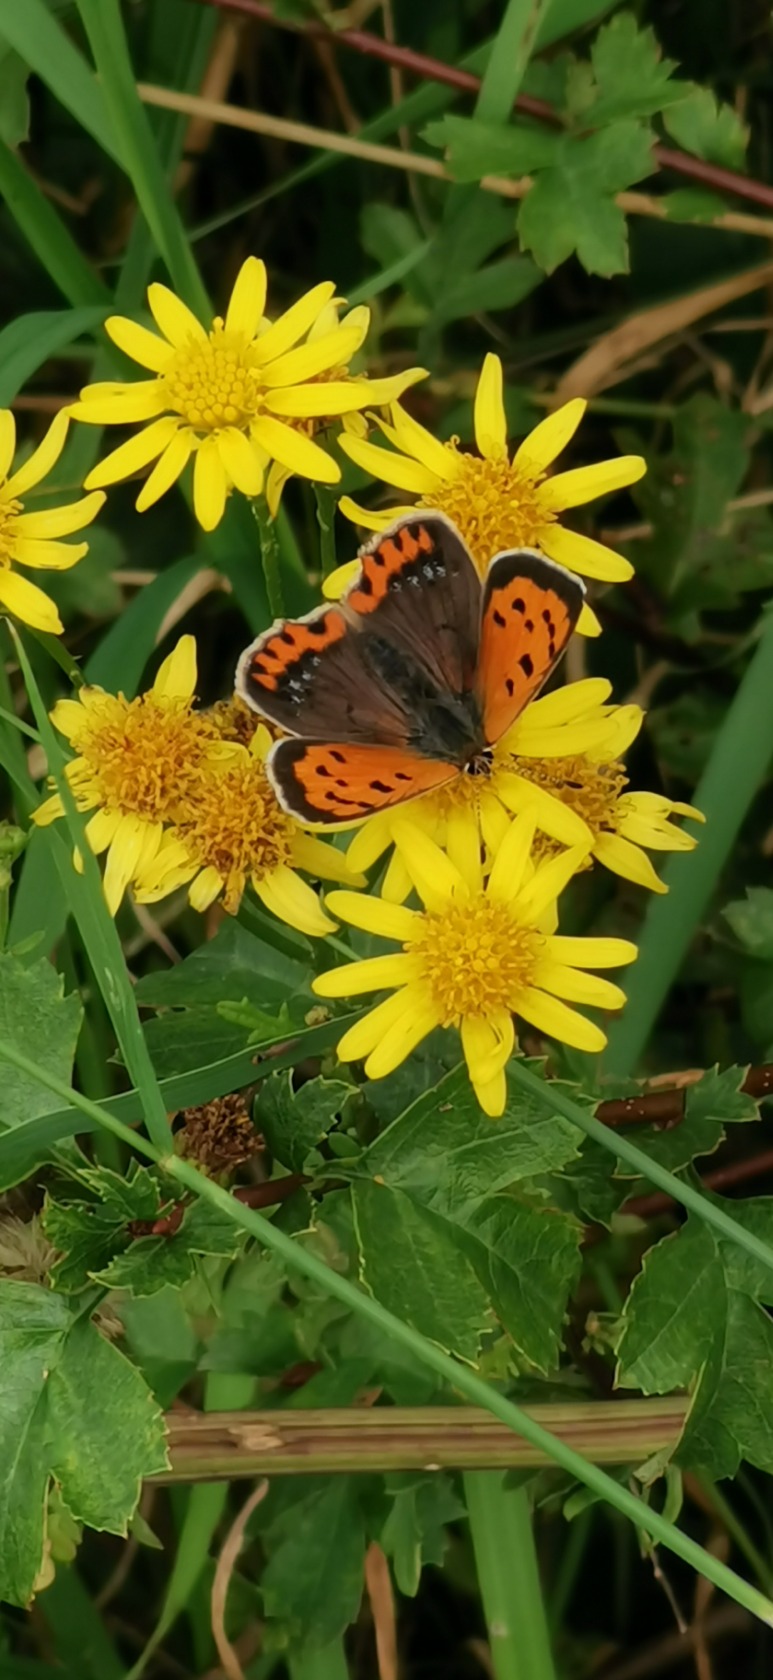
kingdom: Animalia
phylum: Arthropoda
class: Insecta
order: Lepidoptera
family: Lycaenidae
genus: Lycaena
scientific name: Lycaena phlaeas
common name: Lille ildfugl
